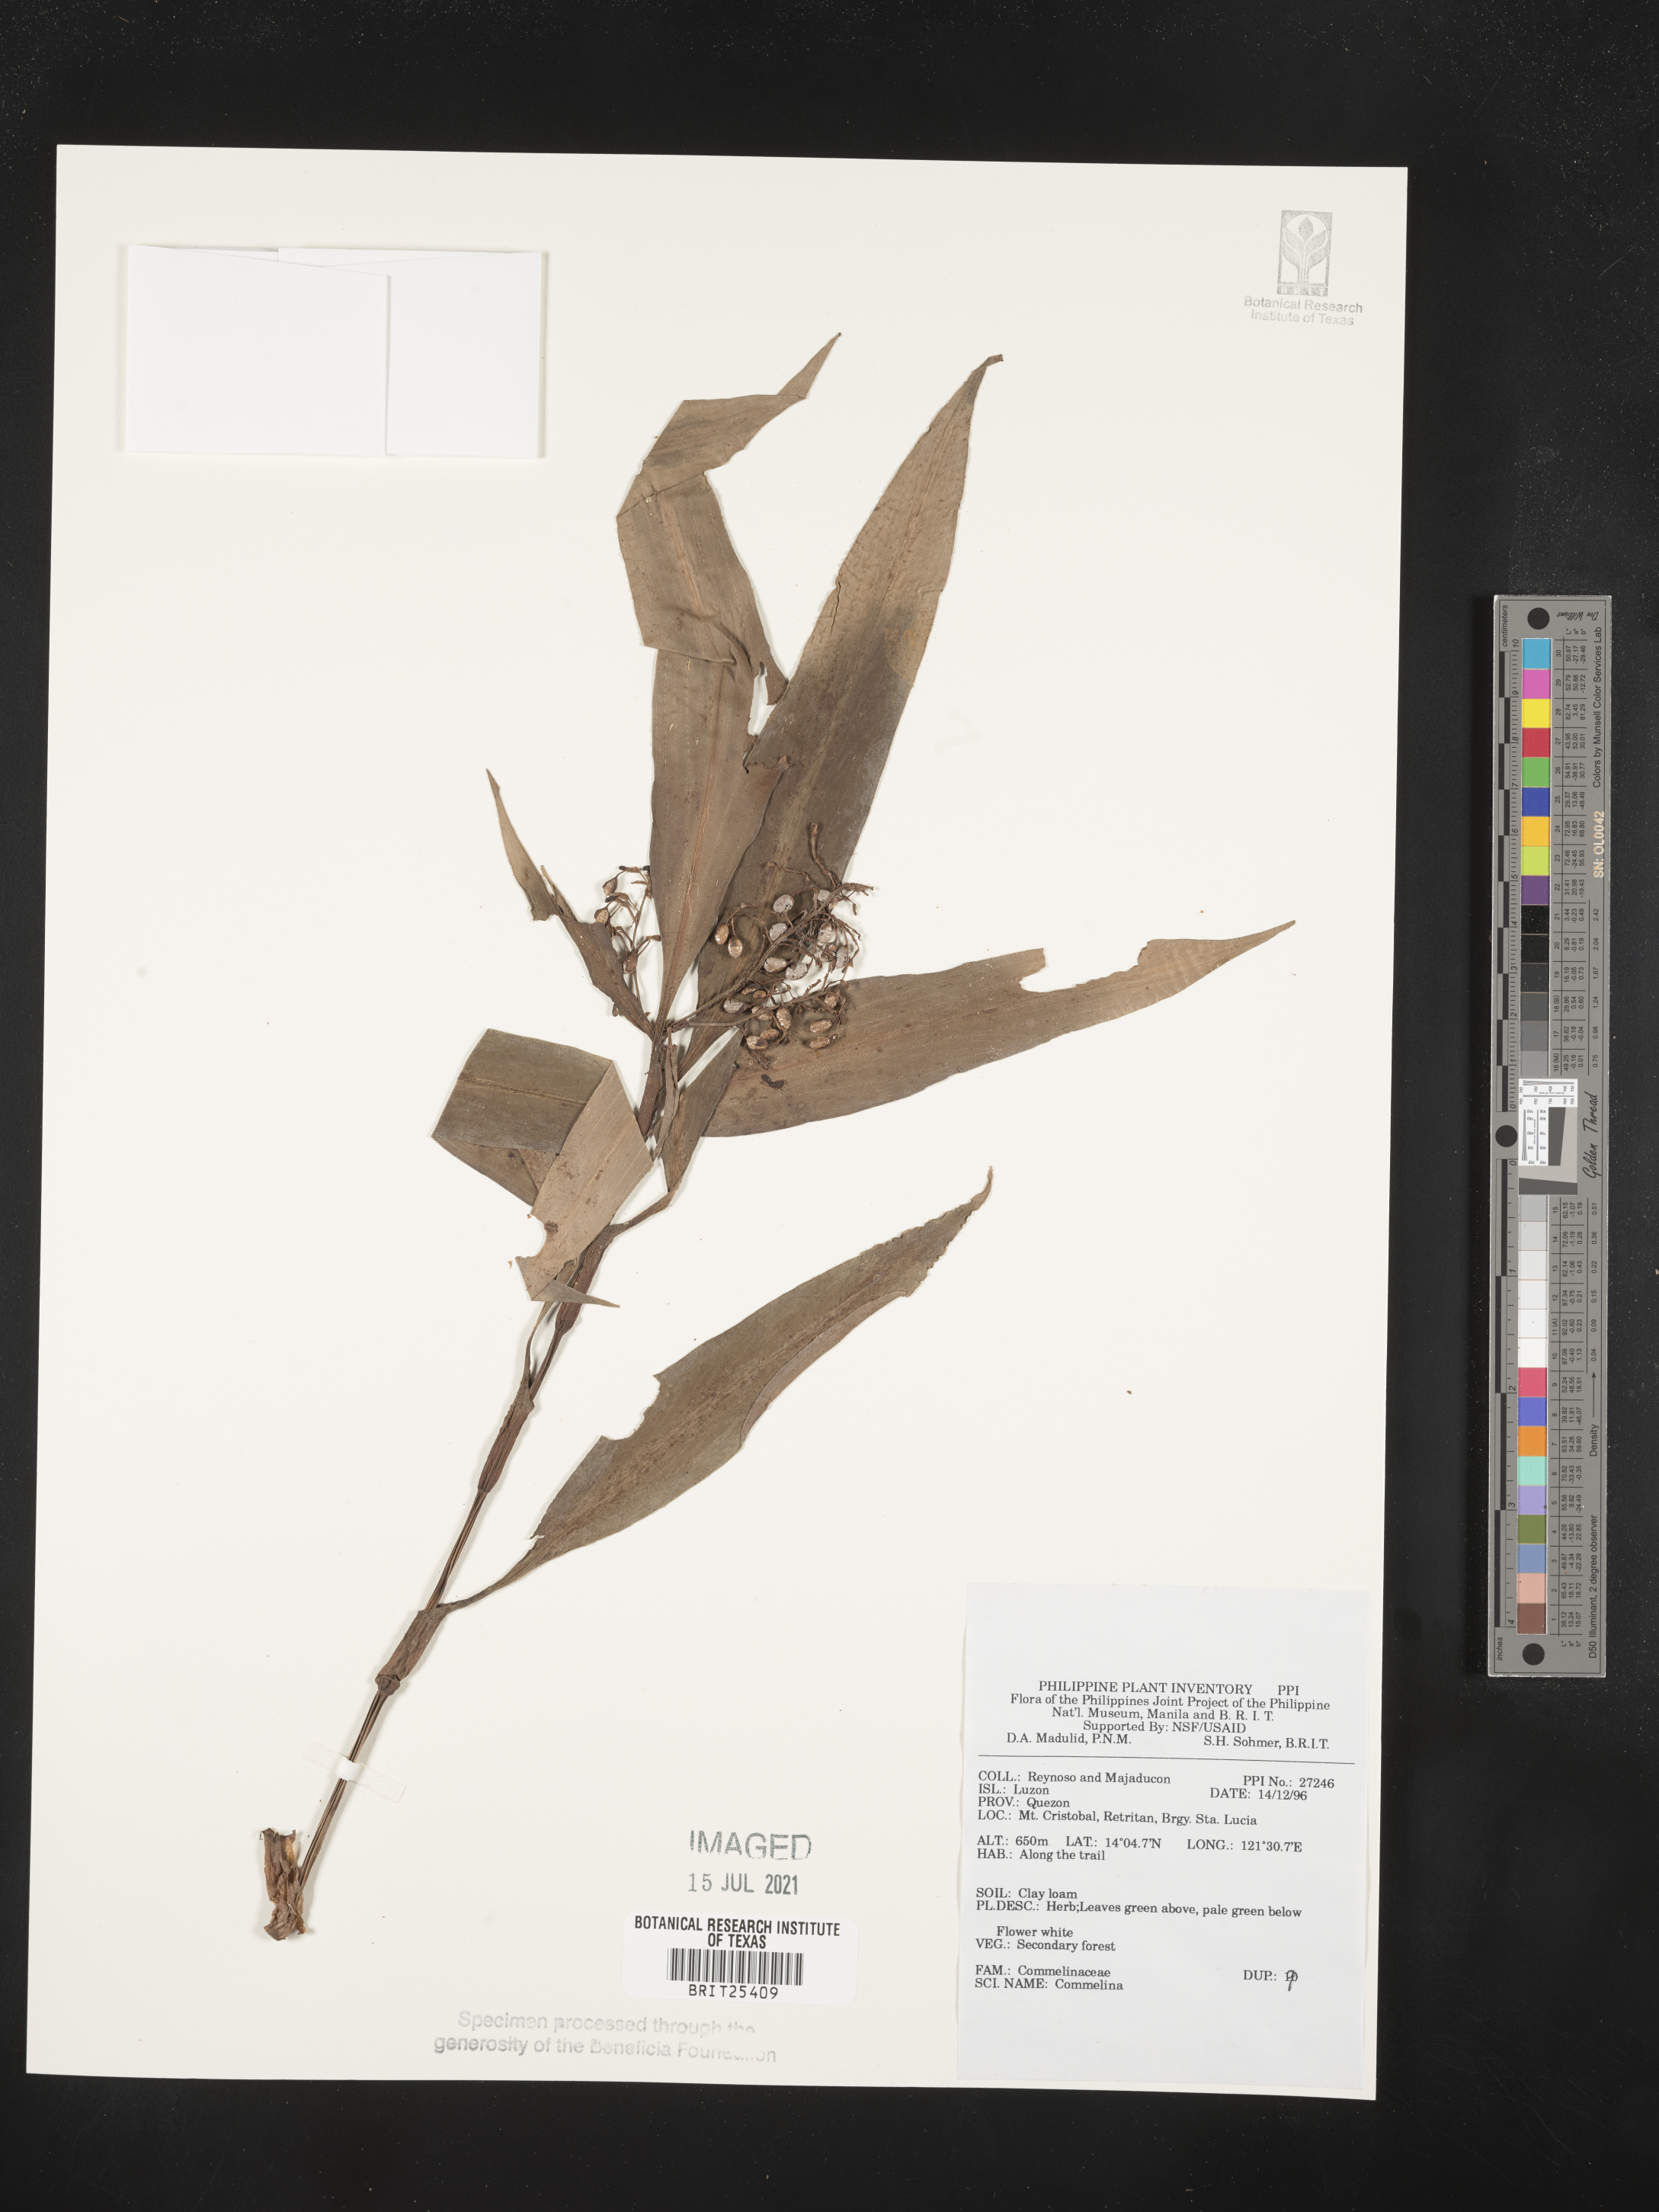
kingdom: Plantae
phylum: Tracheophyta
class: Liliopsida
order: Commelinales
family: Commelinaceae
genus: Commelina
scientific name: Commelina
